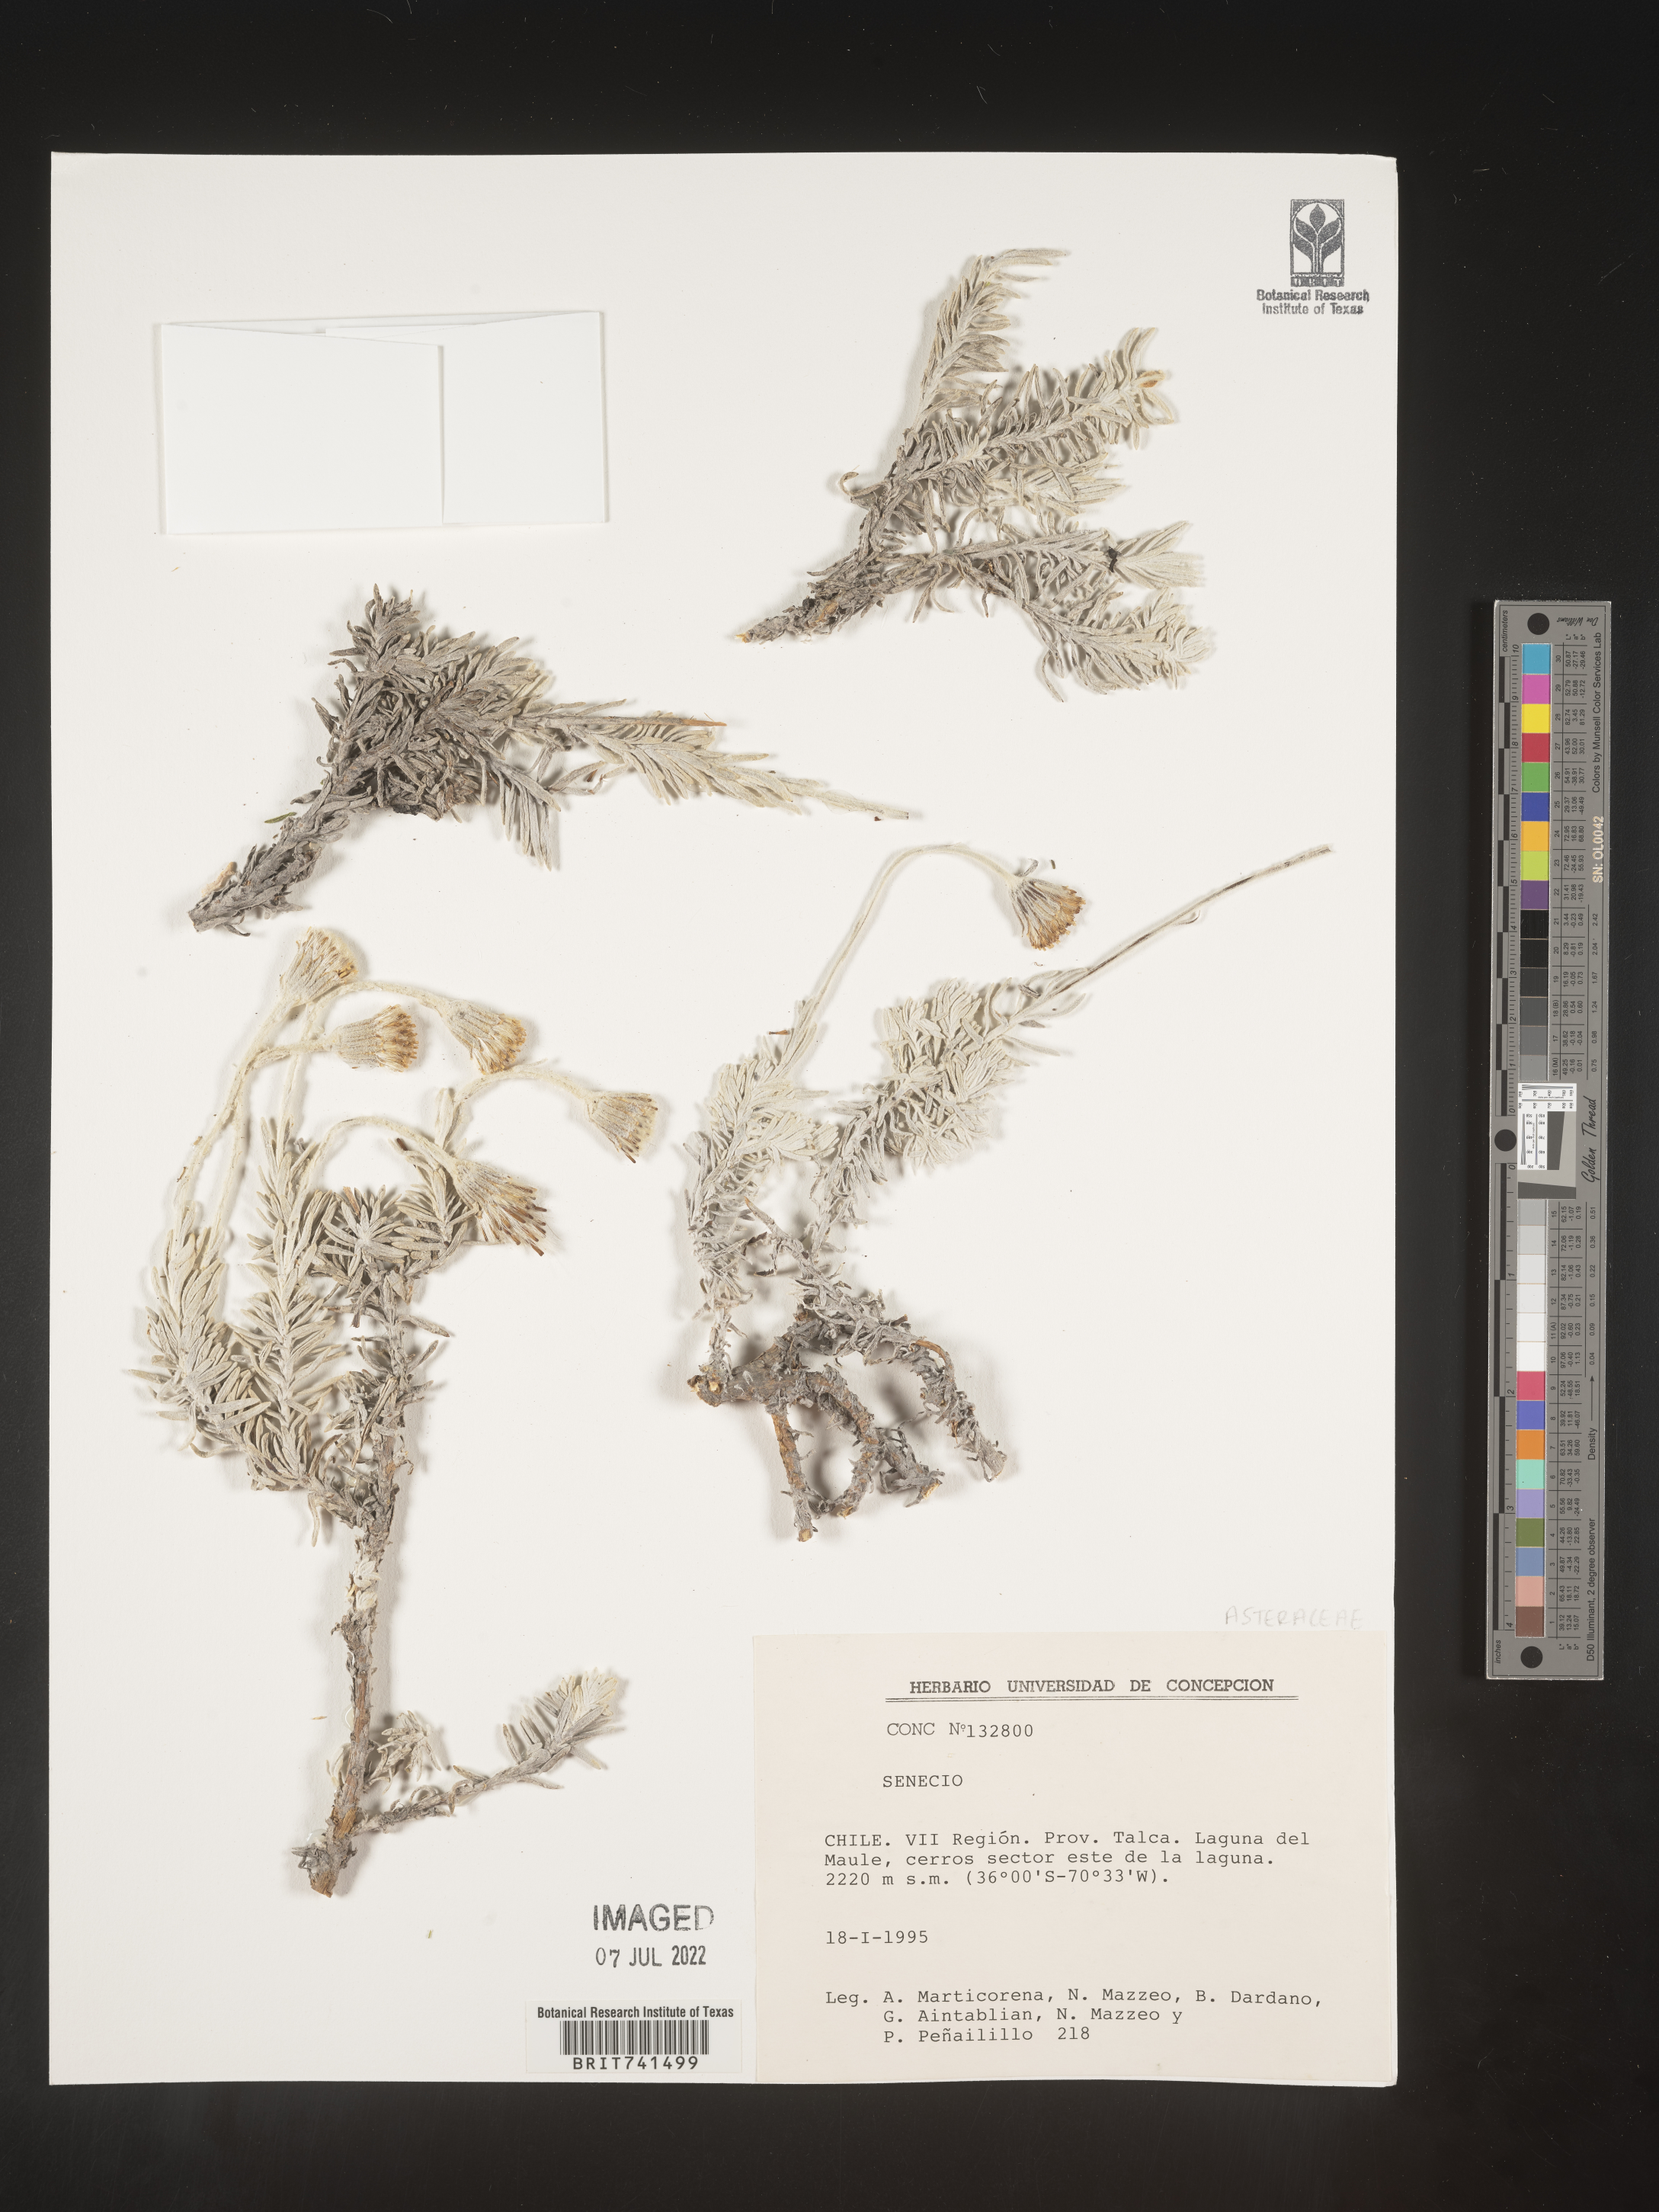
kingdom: Plantae
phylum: Tracheophyta
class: Magnoliopsida
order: Asterales
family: Asteraceae
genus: Senecio
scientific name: Senecio
